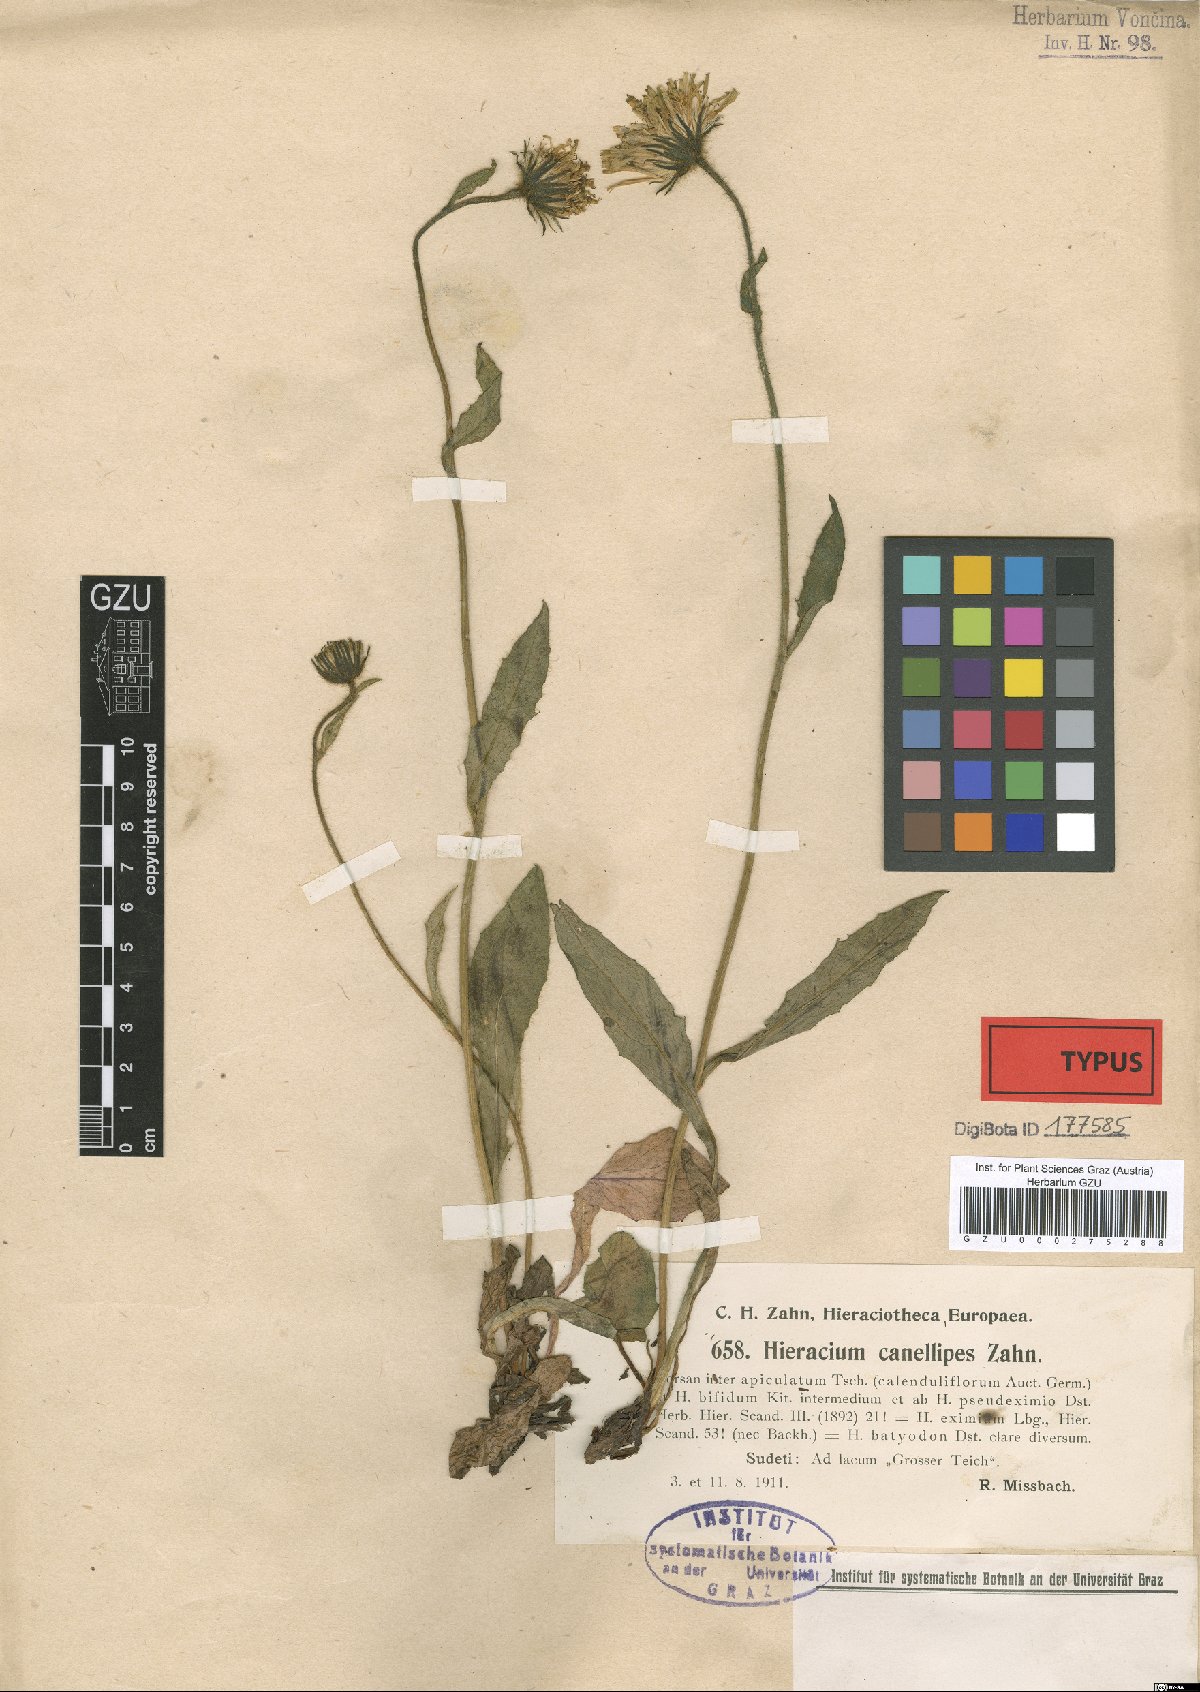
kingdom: Plantae
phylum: Tracheophyta
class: Magnoliopsida
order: Asterales
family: Asteraceae
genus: Hieracium
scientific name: Hieracium nigrescens
